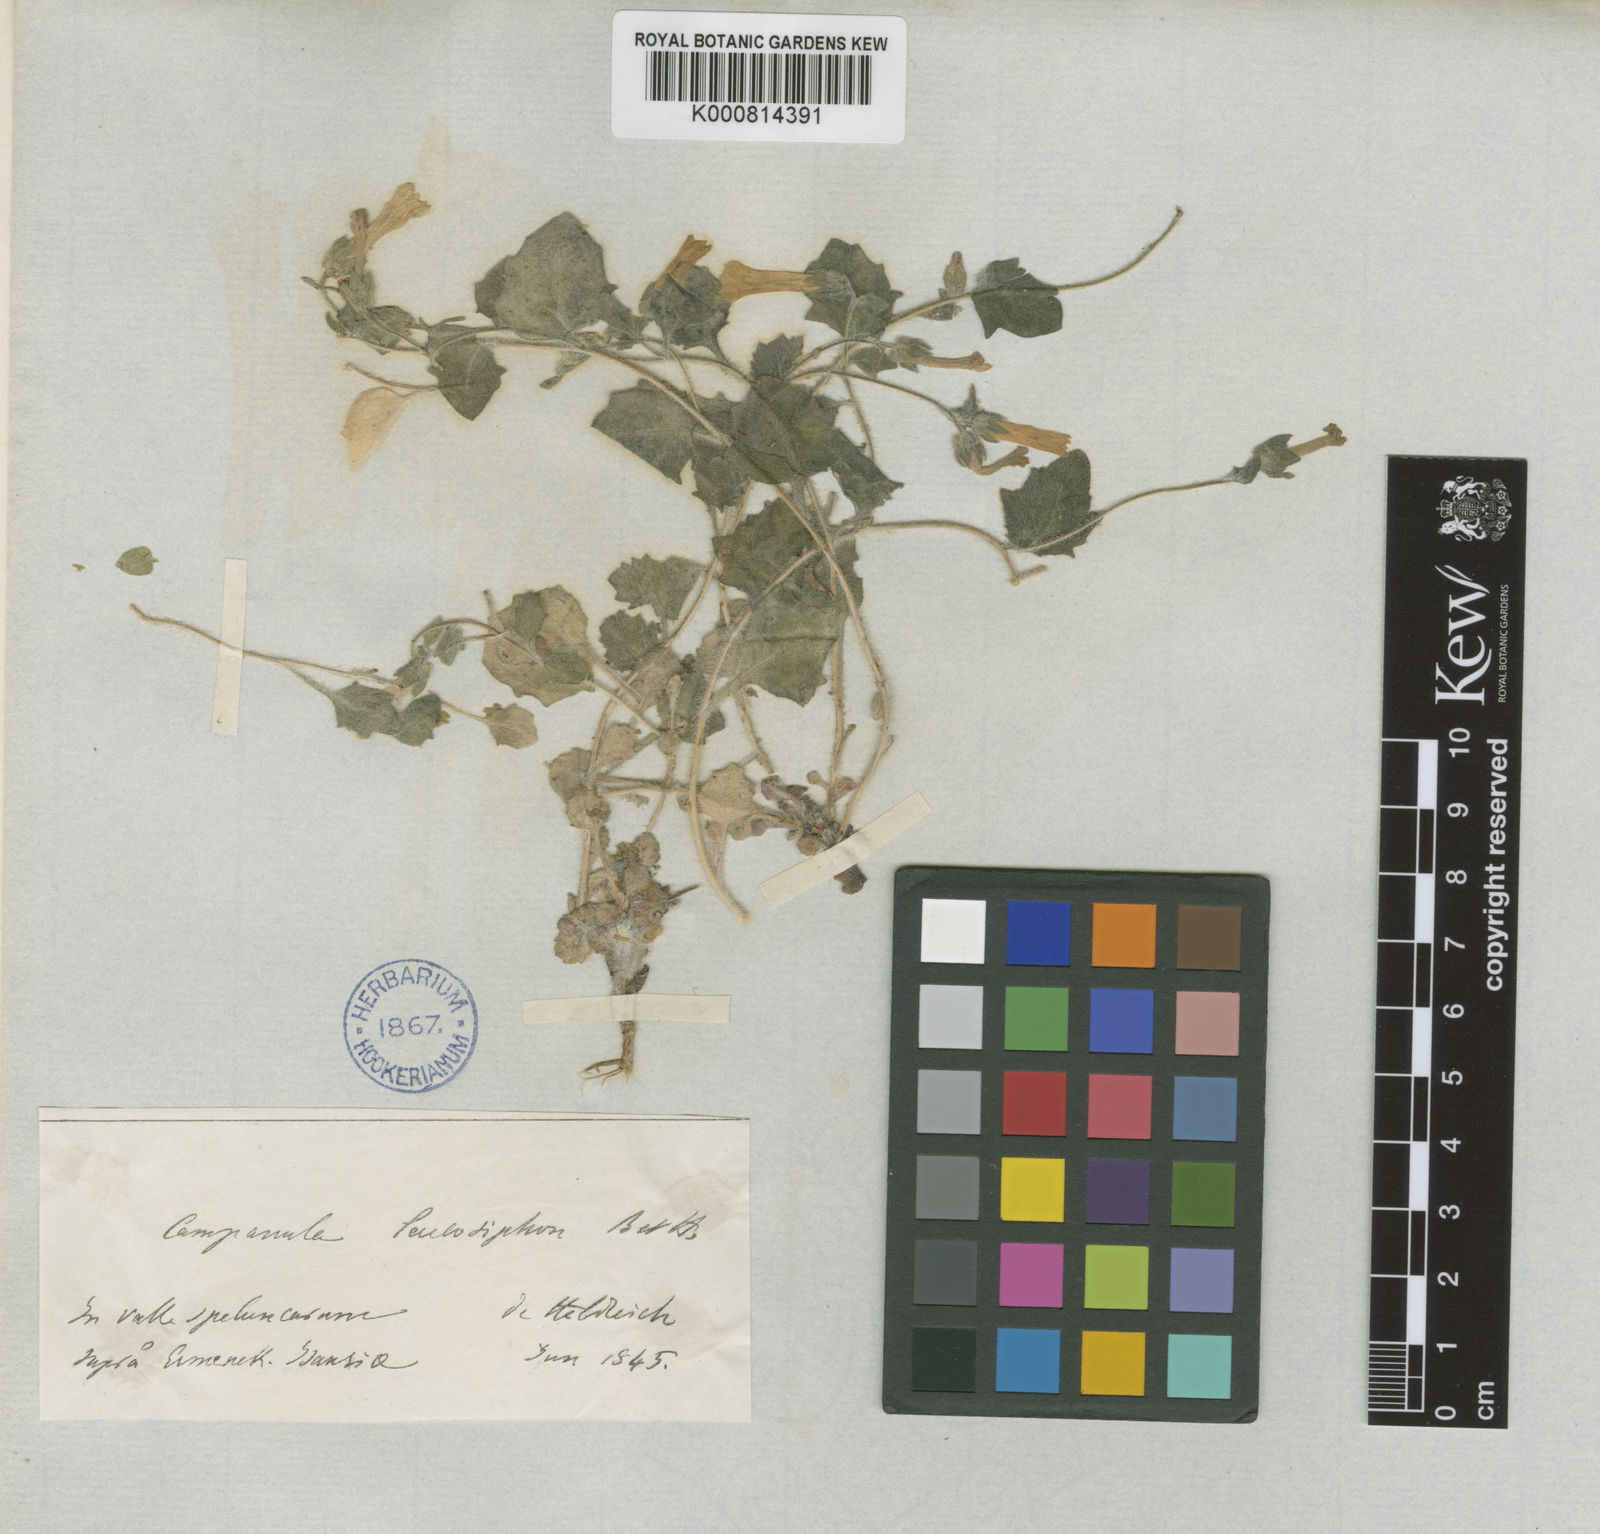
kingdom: Plantae
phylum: Tracheophyta
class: Magnoliopsida
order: Asterales
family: Campanulaceae
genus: Campanula
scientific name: Campanula leucosiphon
